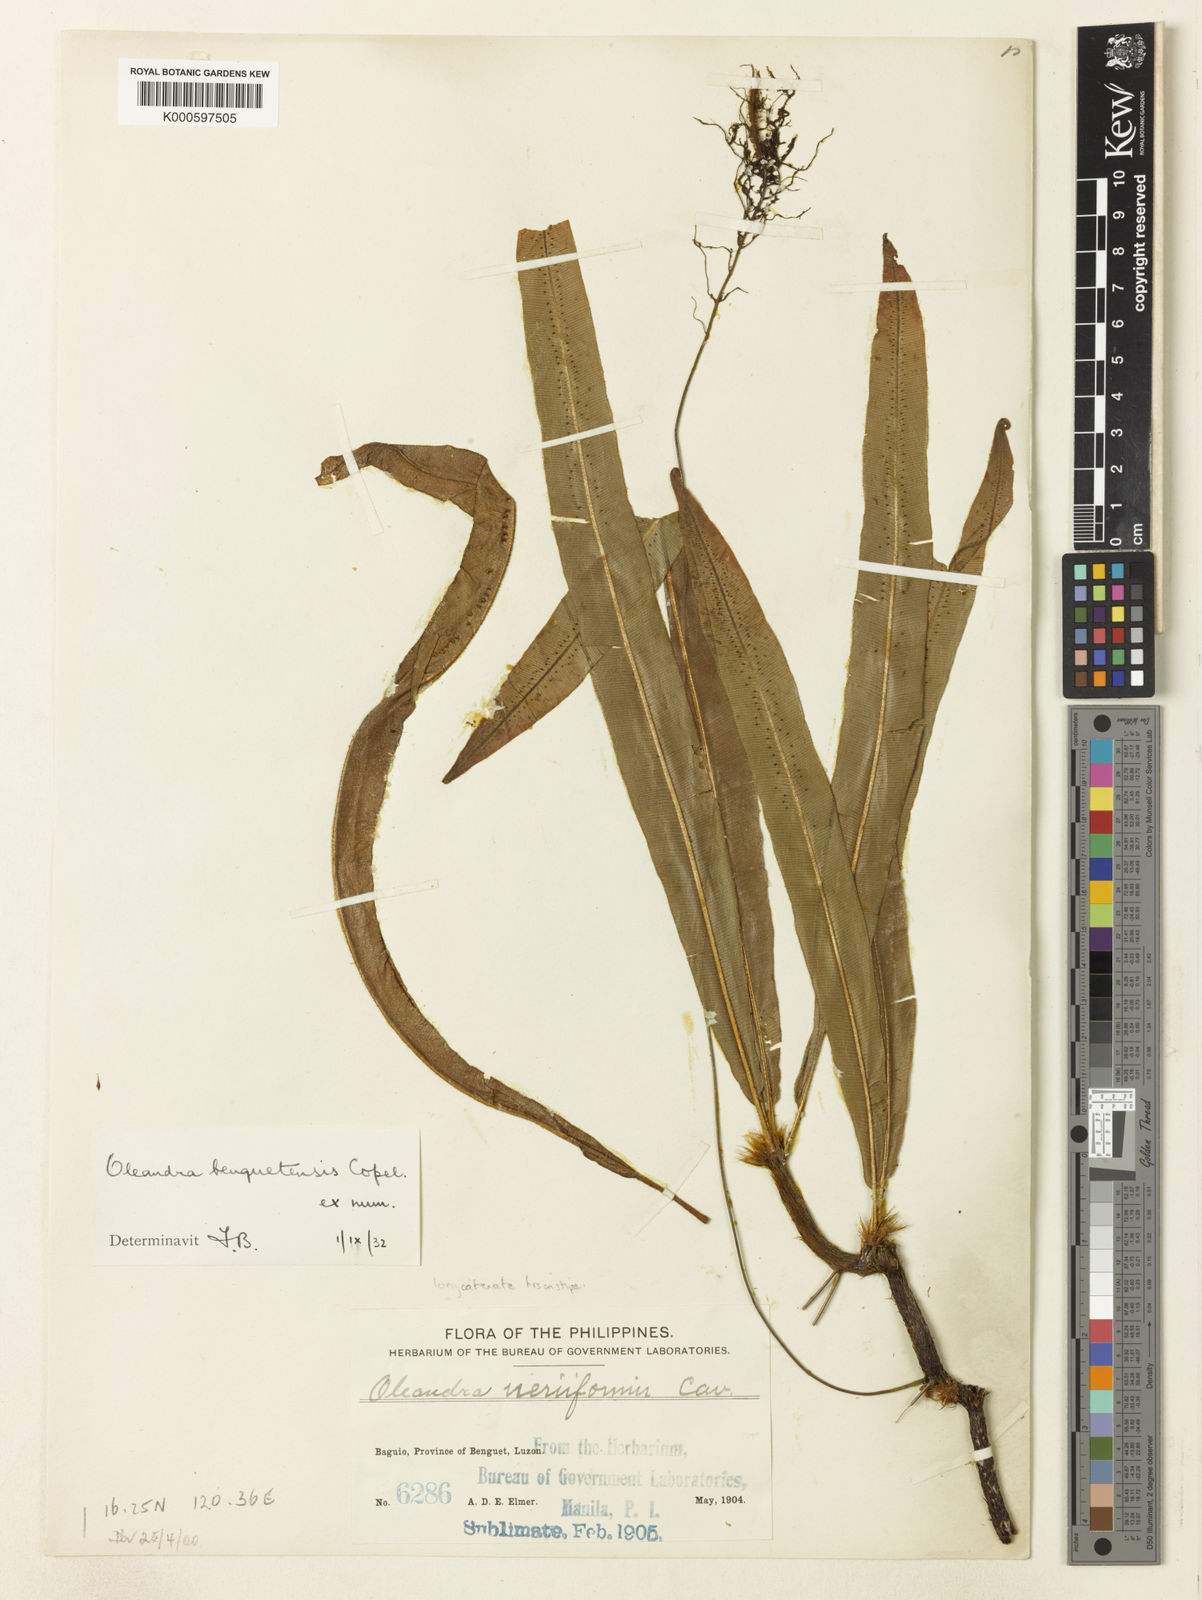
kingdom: Plantae
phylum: Tracheophyta
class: Polypodiopsida
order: Polypodiales
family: Oleandraceae
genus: Oleandra
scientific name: Oleandra musifolia
